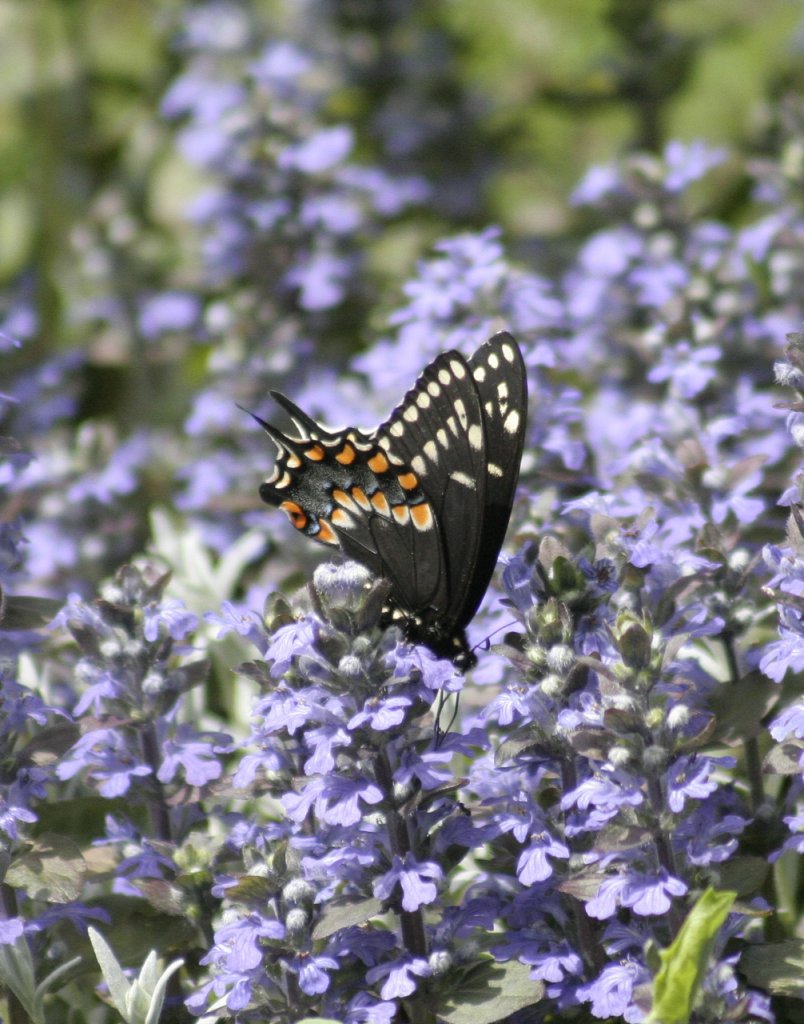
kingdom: Animalia
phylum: Arthropoda
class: Insecta
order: Lepidoptera
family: Papilionidae
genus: Papilio
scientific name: Papilio polyxenes
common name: Black Swallowtail
